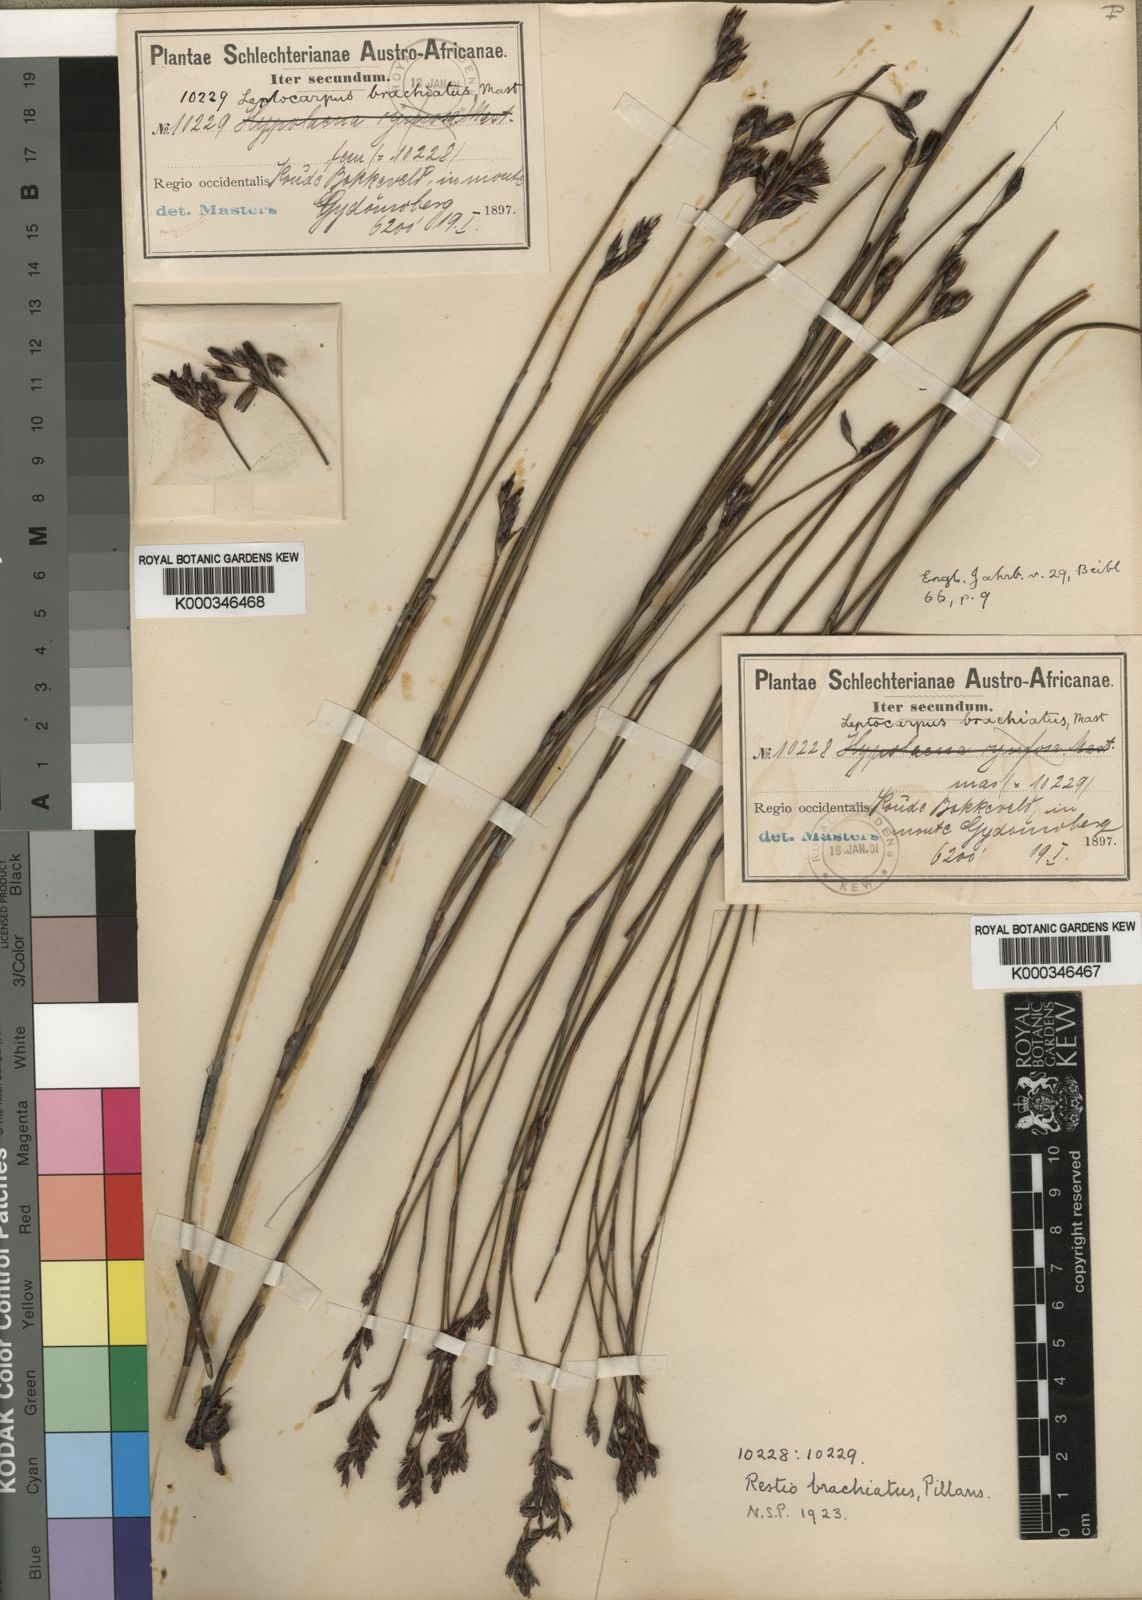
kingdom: Plantae
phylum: Tracheophyta
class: Liliopsida
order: Poales
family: Restionaceae
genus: Restio
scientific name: Restio brachiatus
